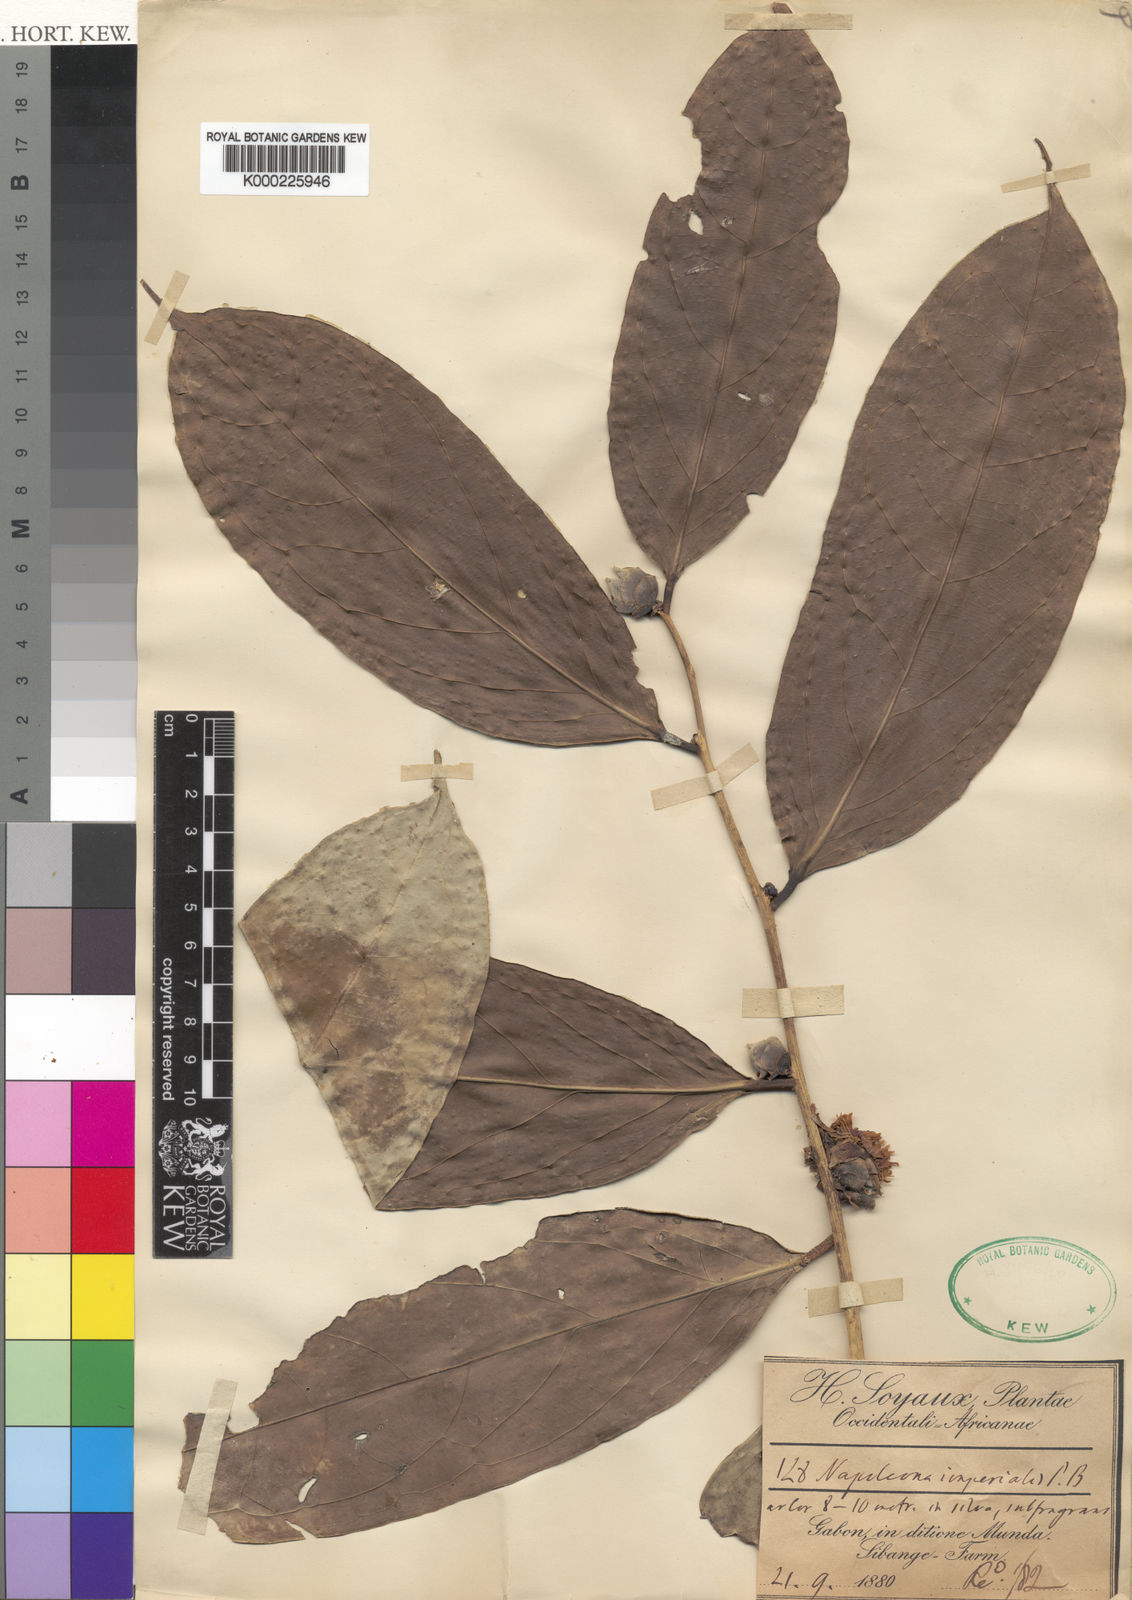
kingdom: Plantae
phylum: Tracheophyta
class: Magnoliopsida
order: Ericales
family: Lecythidaceae
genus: Napoleonaea
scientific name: Napoleonaea imperialis
